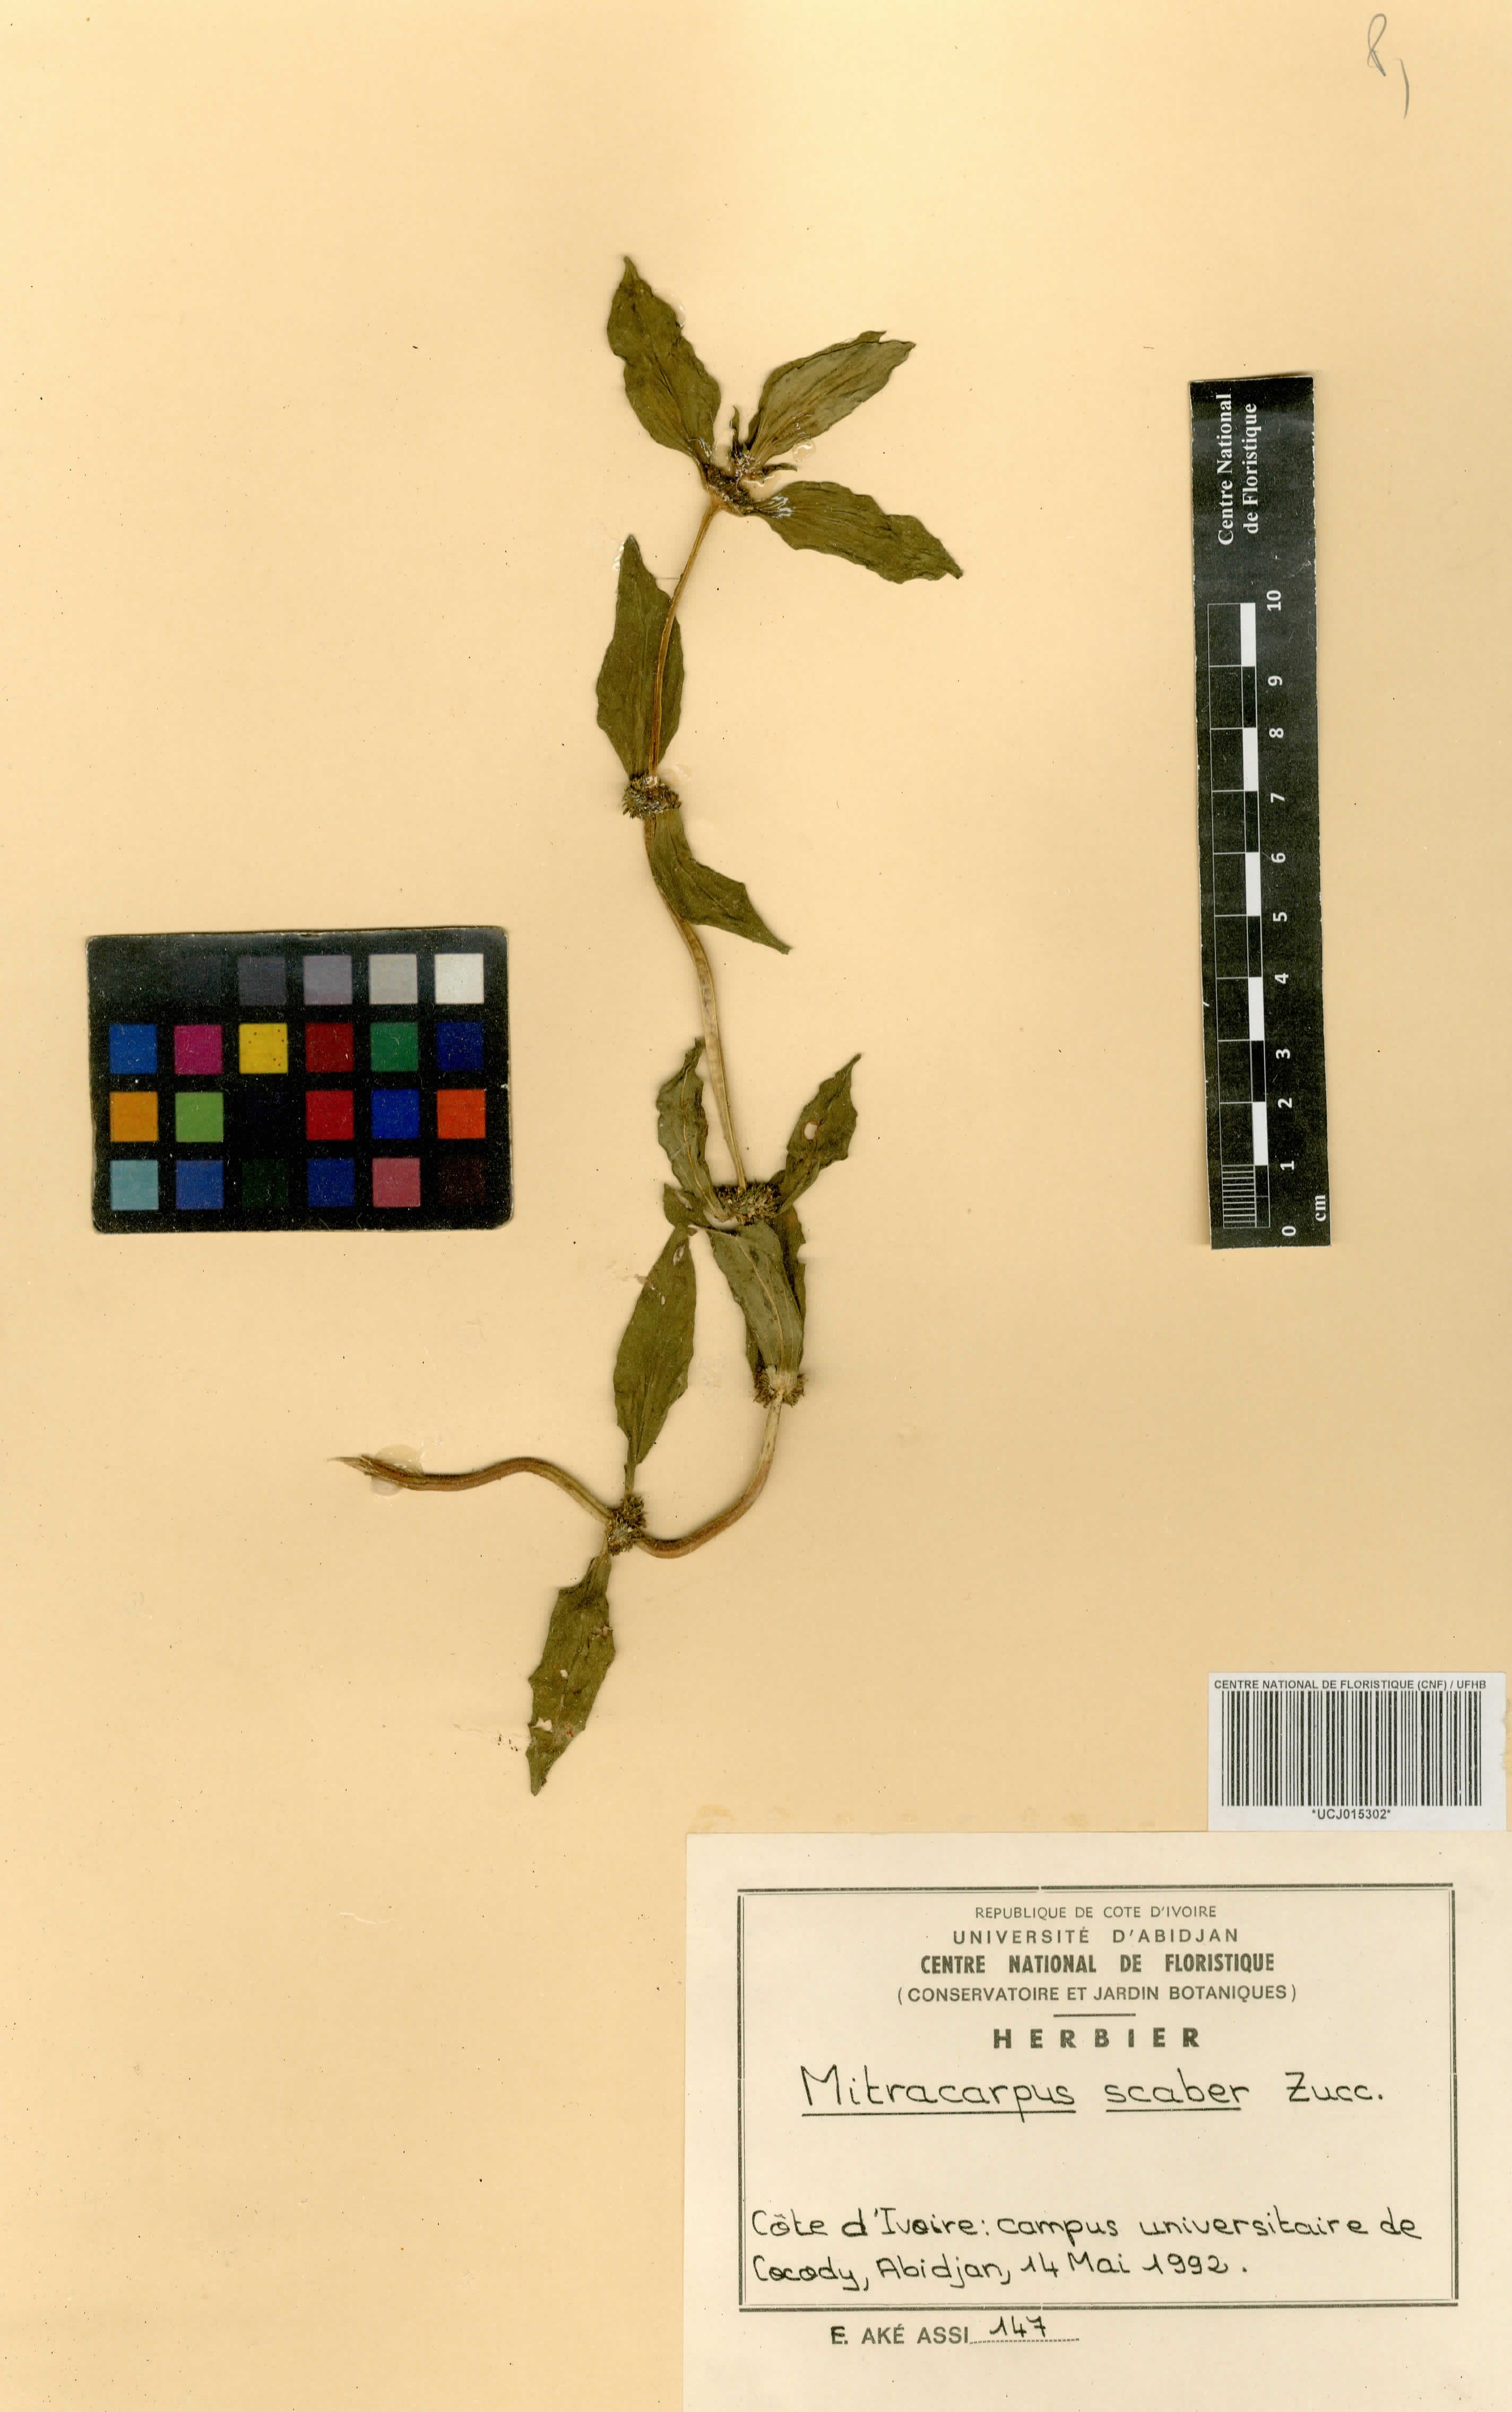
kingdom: Plantae
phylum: Tracheophyta
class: Magnoliopsida
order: Gentianales
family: Rubiaceae
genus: Mitracarpus
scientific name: Mitracarpus hirtus
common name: Tropical girdlepod
